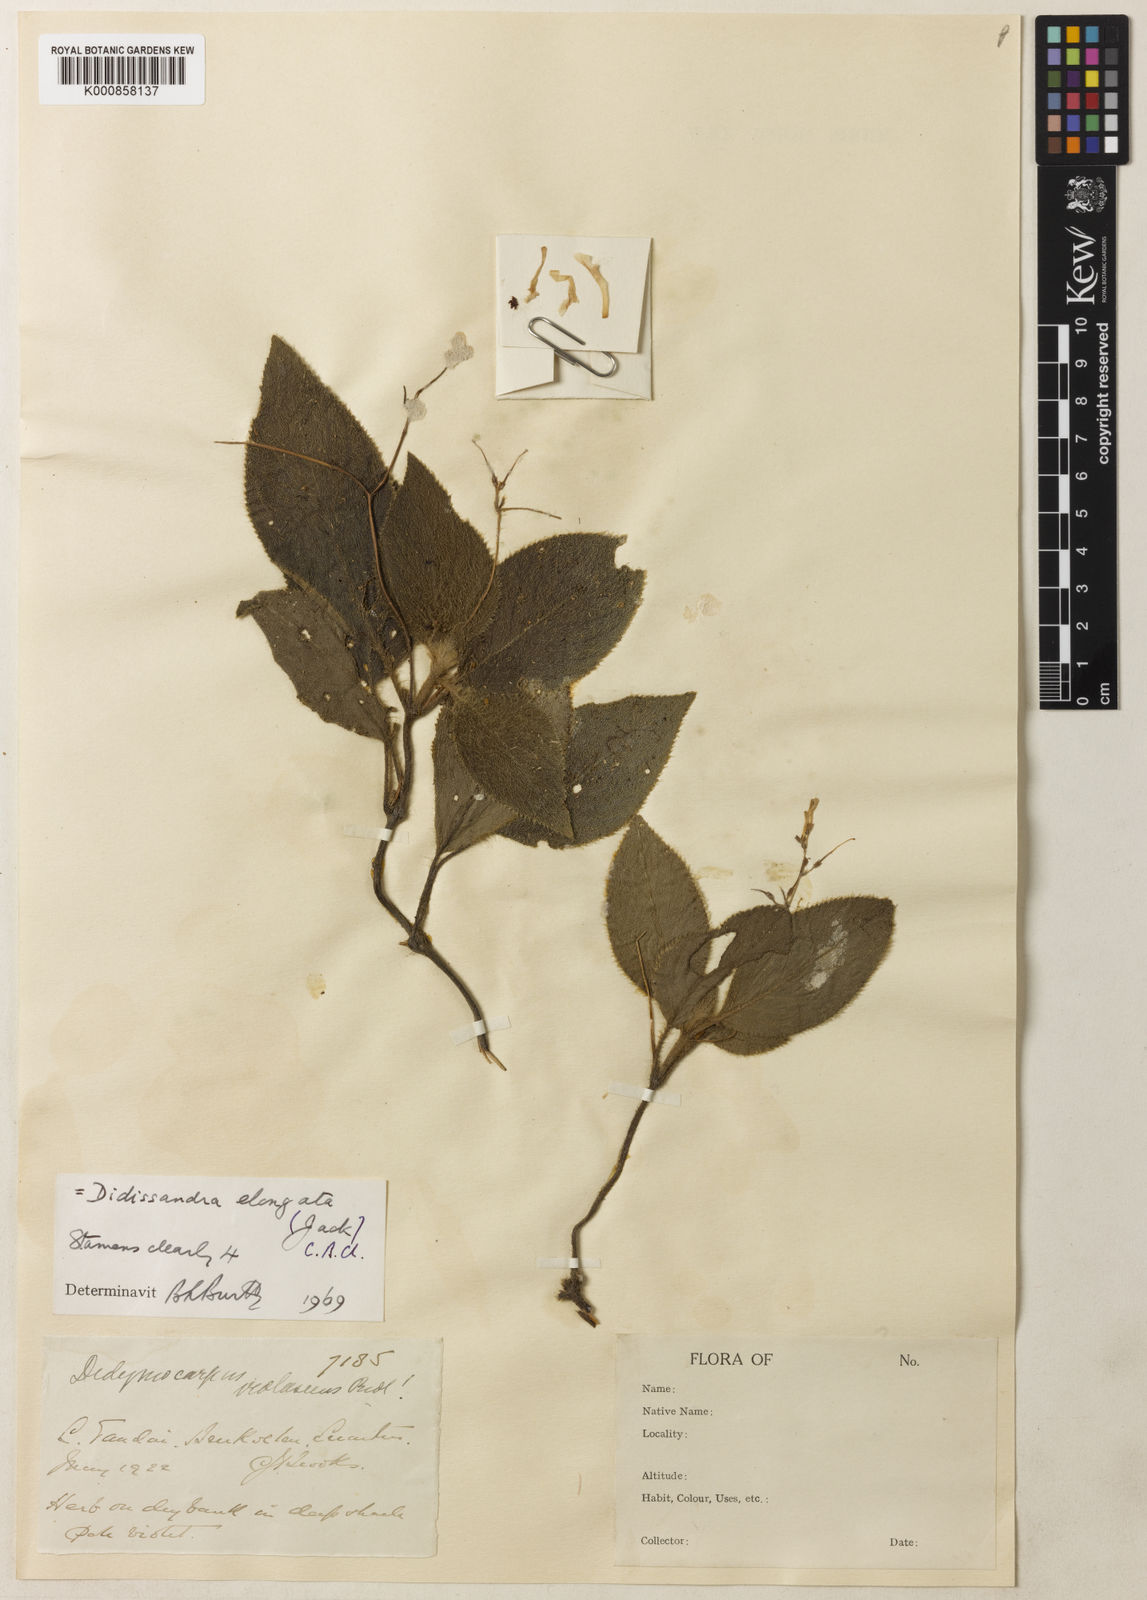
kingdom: Plantae
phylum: Tracheophyta
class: Magnoliopsida
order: Lamiales
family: Gesneriaceae
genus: Didissandra
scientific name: Didissandra elongata
